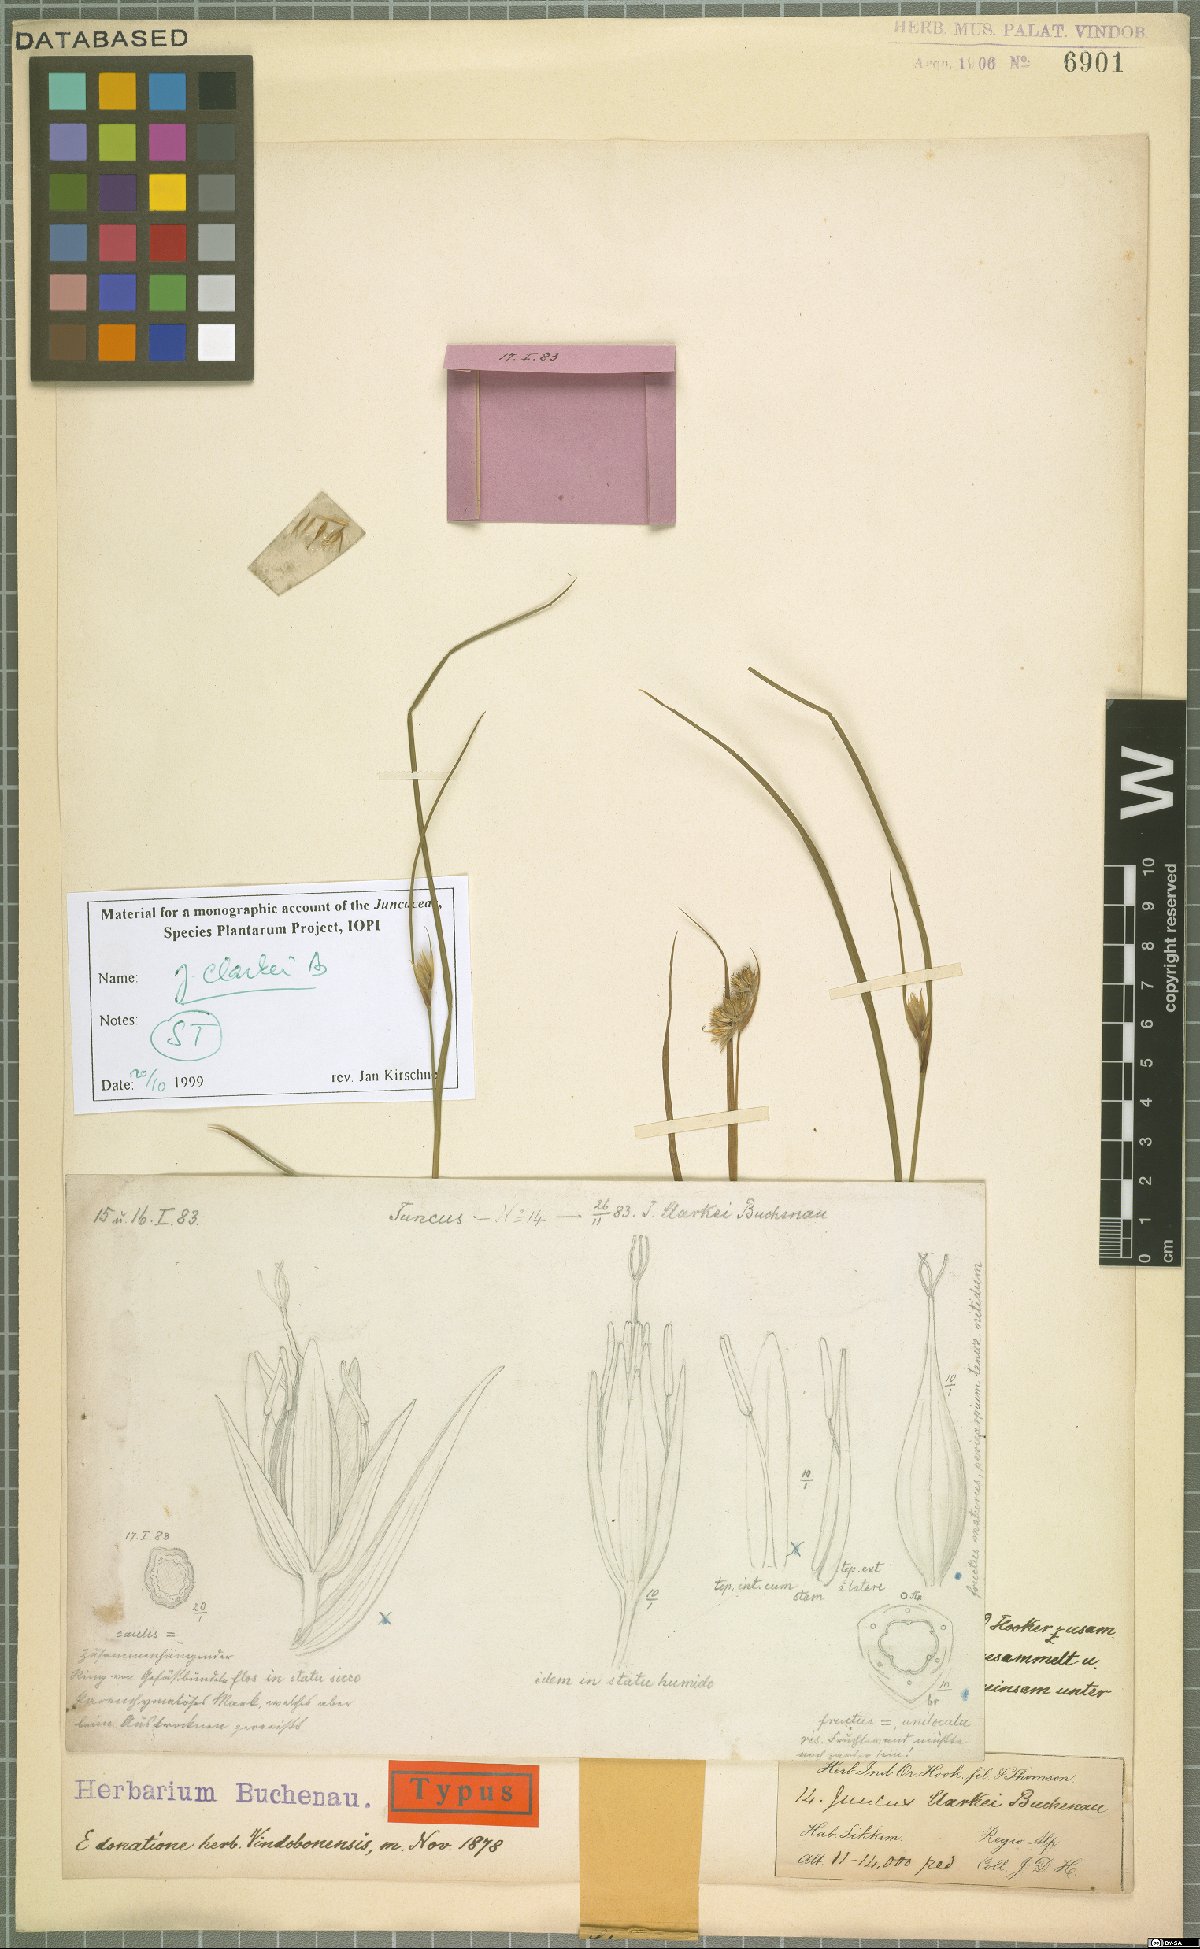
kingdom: Plantae
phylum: Tracheophyta
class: Liliopsida
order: Poales
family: Juncaceae
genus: Juncus
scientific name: Juncus clarkei
